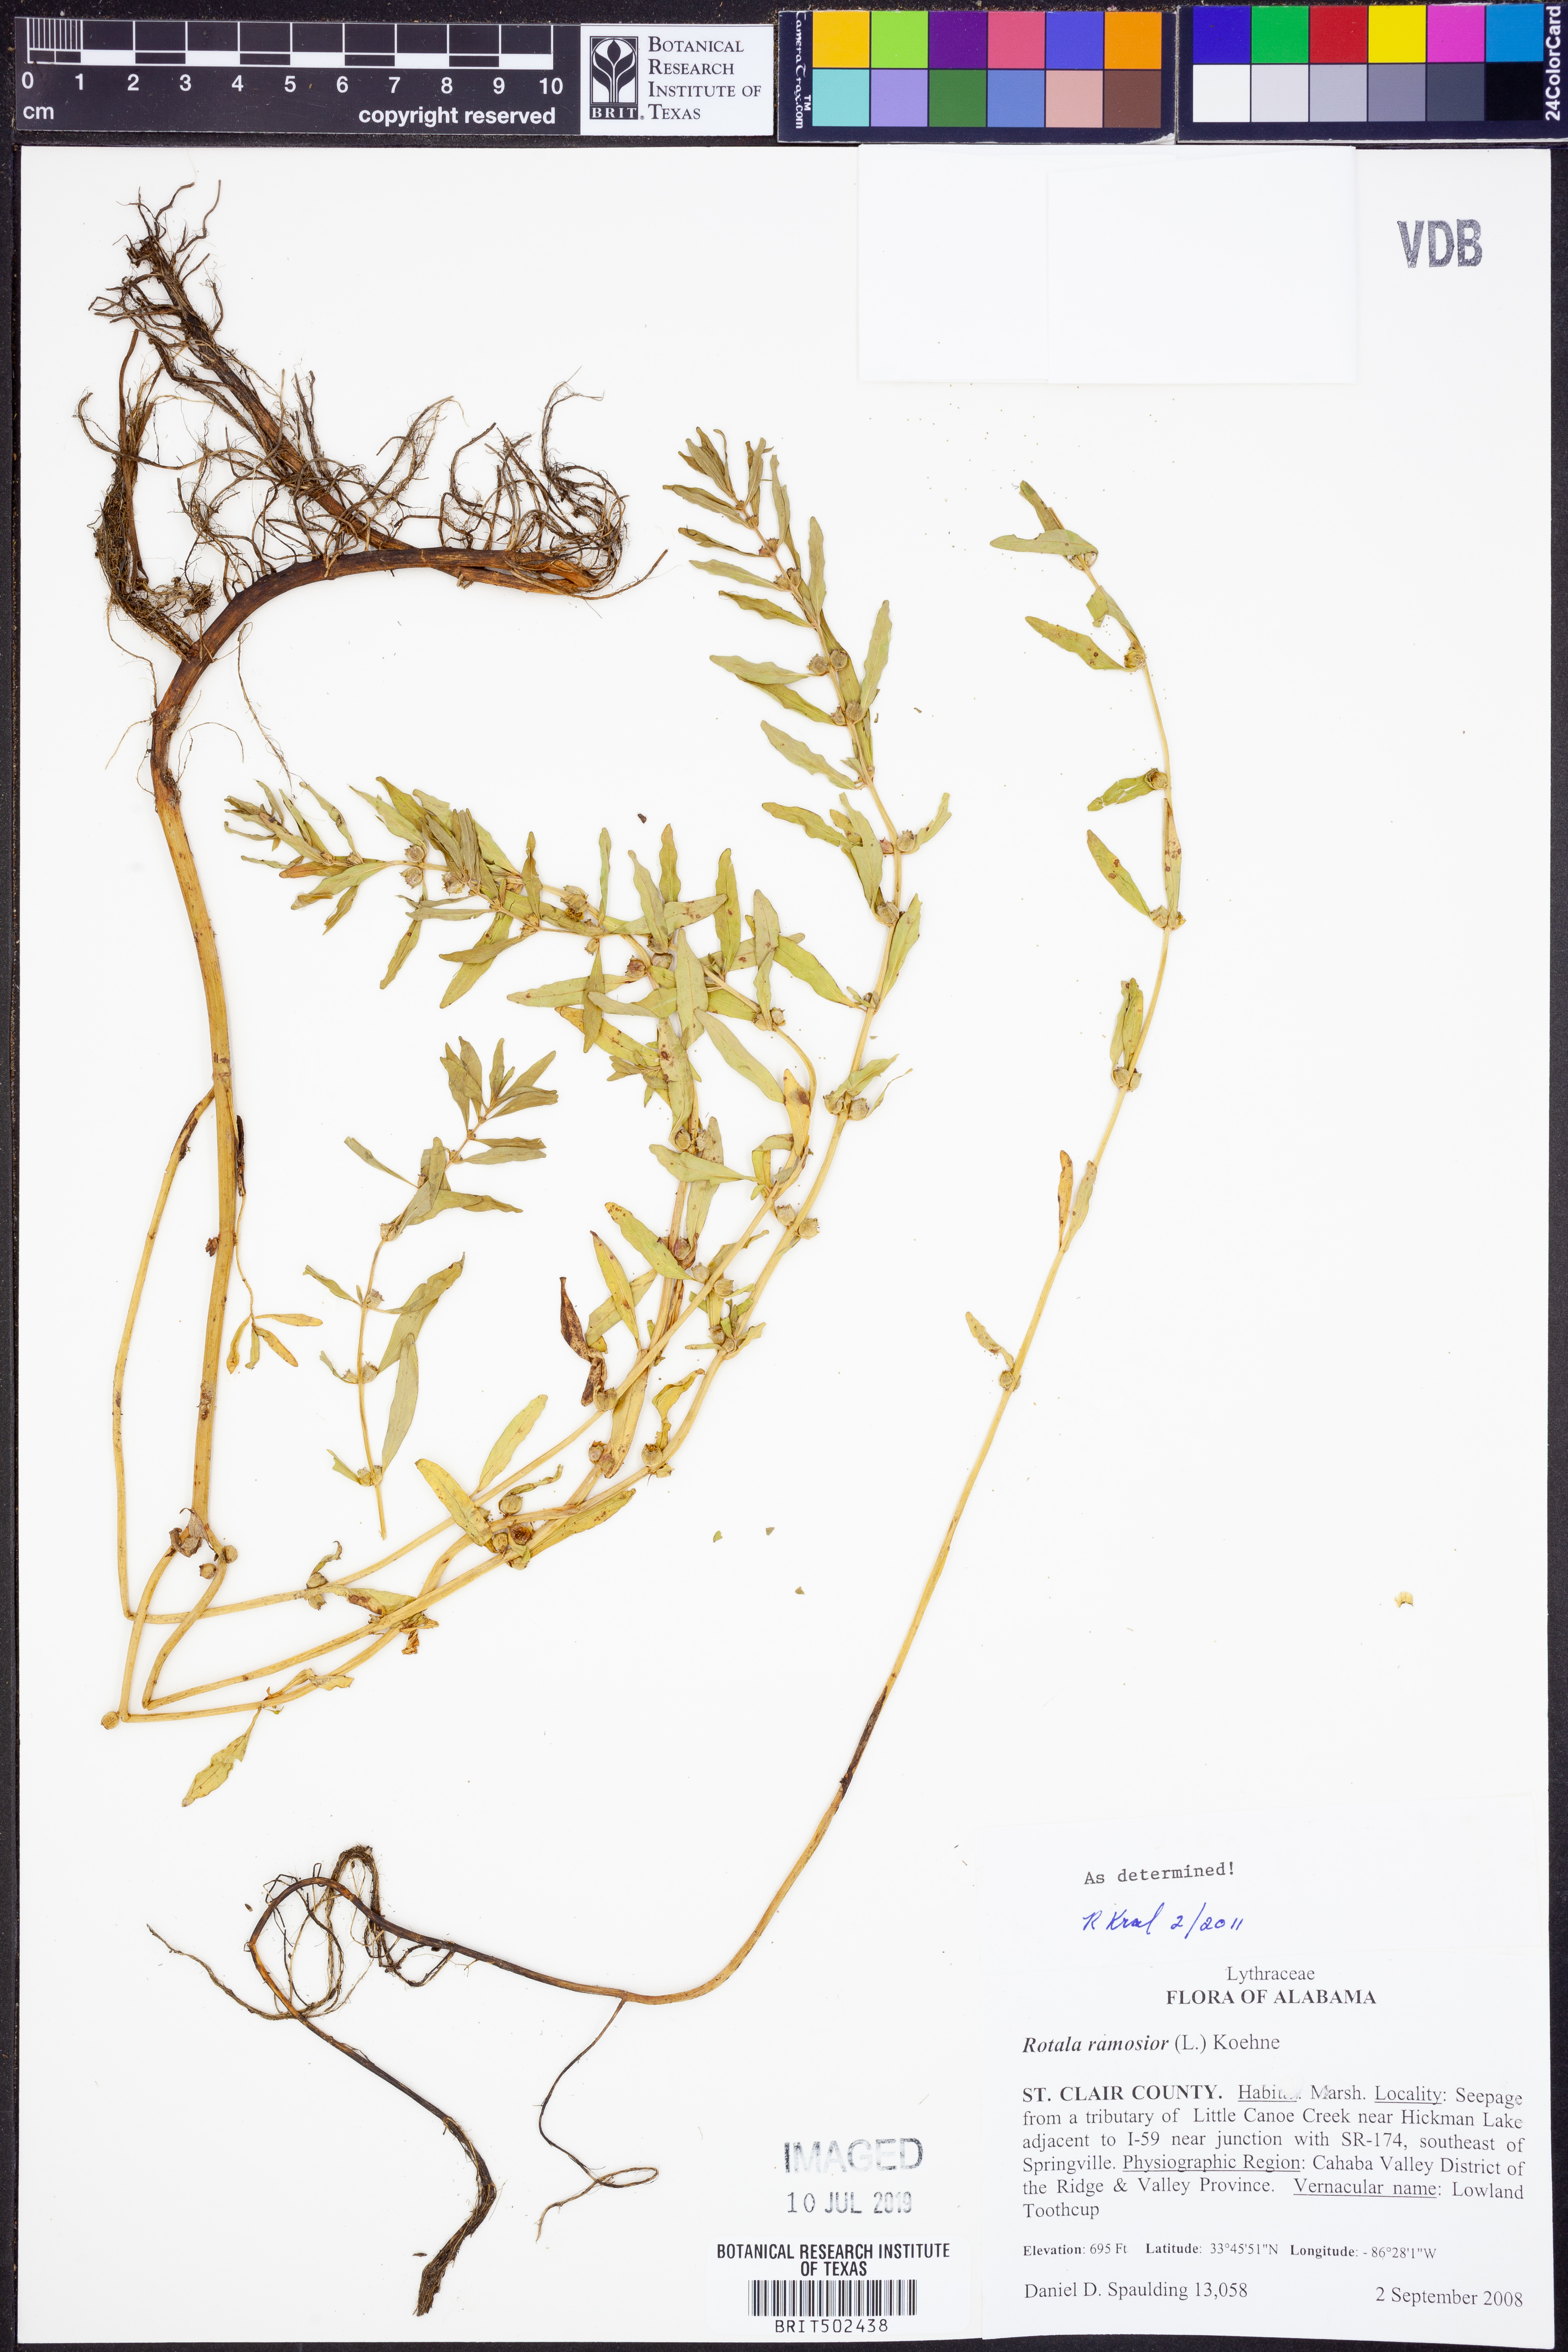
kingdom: Plantae
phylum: Tracheophyta
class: Magnoliopsida
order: Myrtales
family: Lythraceae
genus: Rotala
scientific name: Rotala ramosior
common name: Lowland rotala
